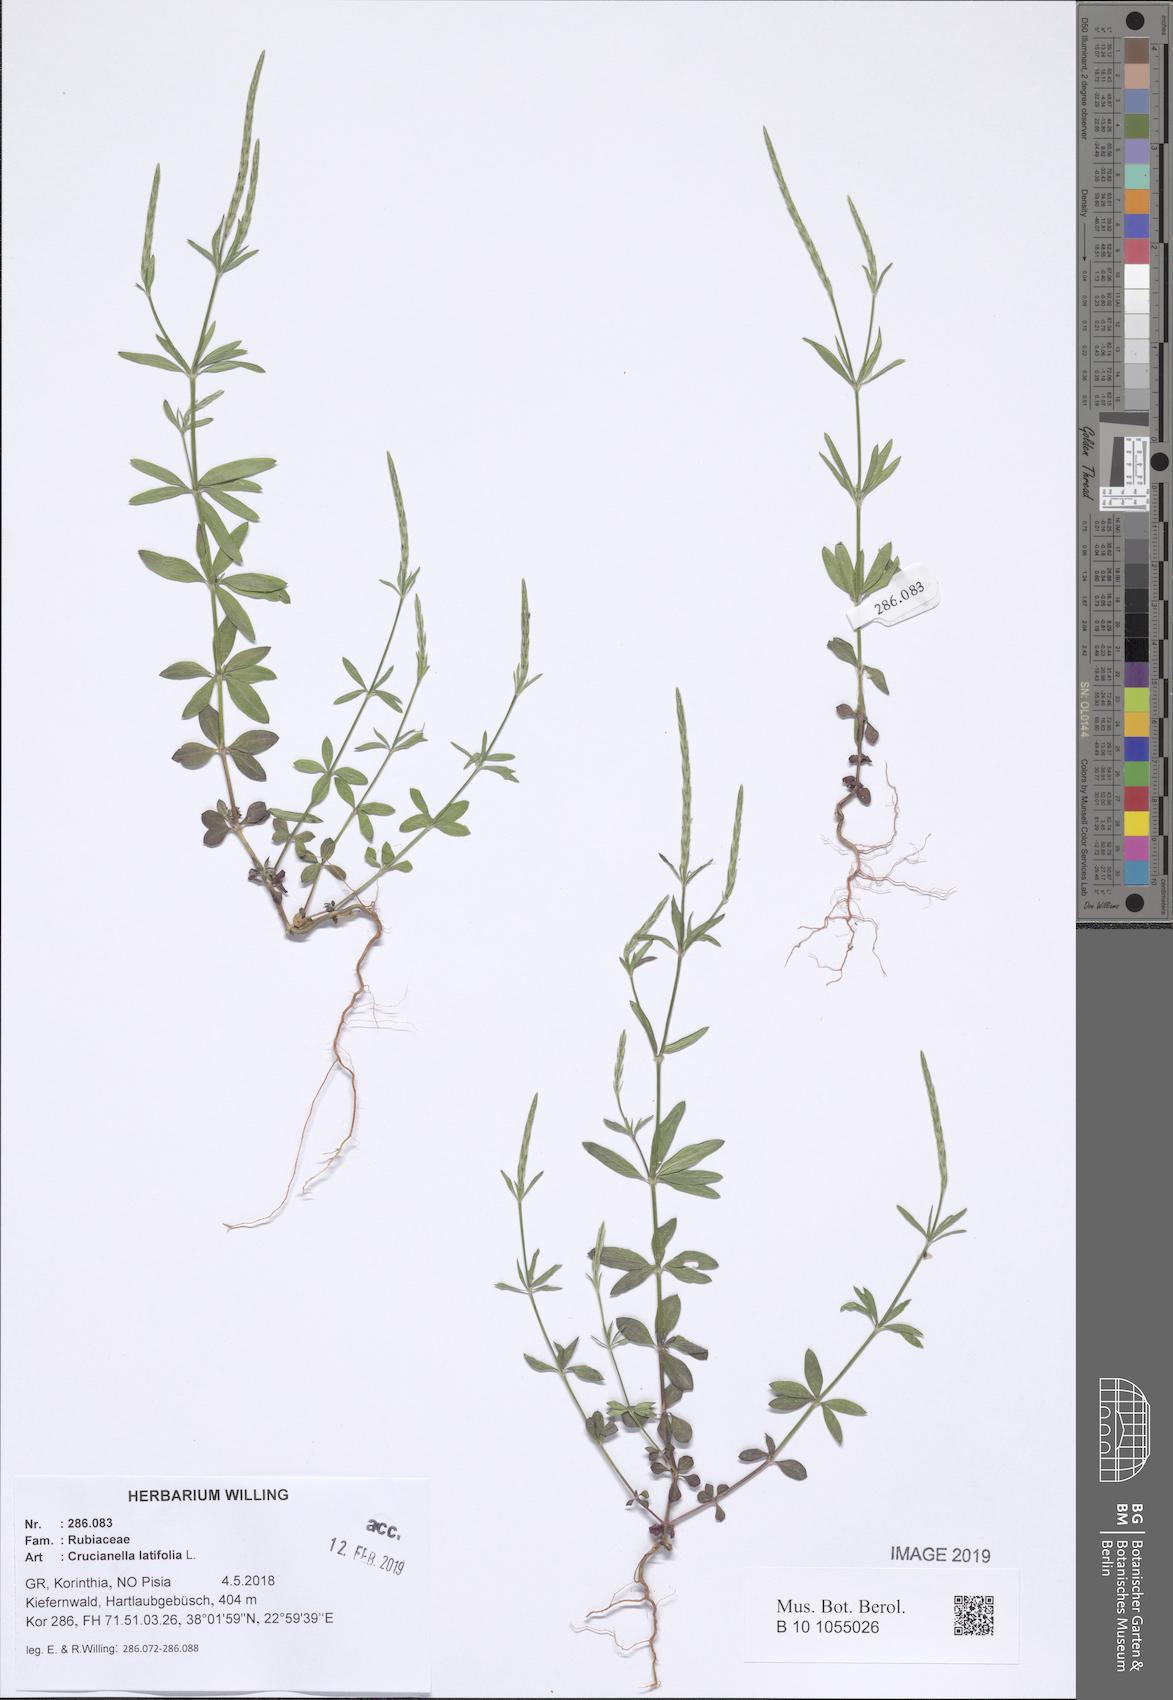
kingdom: Plantae
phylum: Tracheophyta
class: Magnoliopsida
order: Gentianales
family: Rubiaceae
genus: Crucianella
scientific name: Crucianella latifolia
